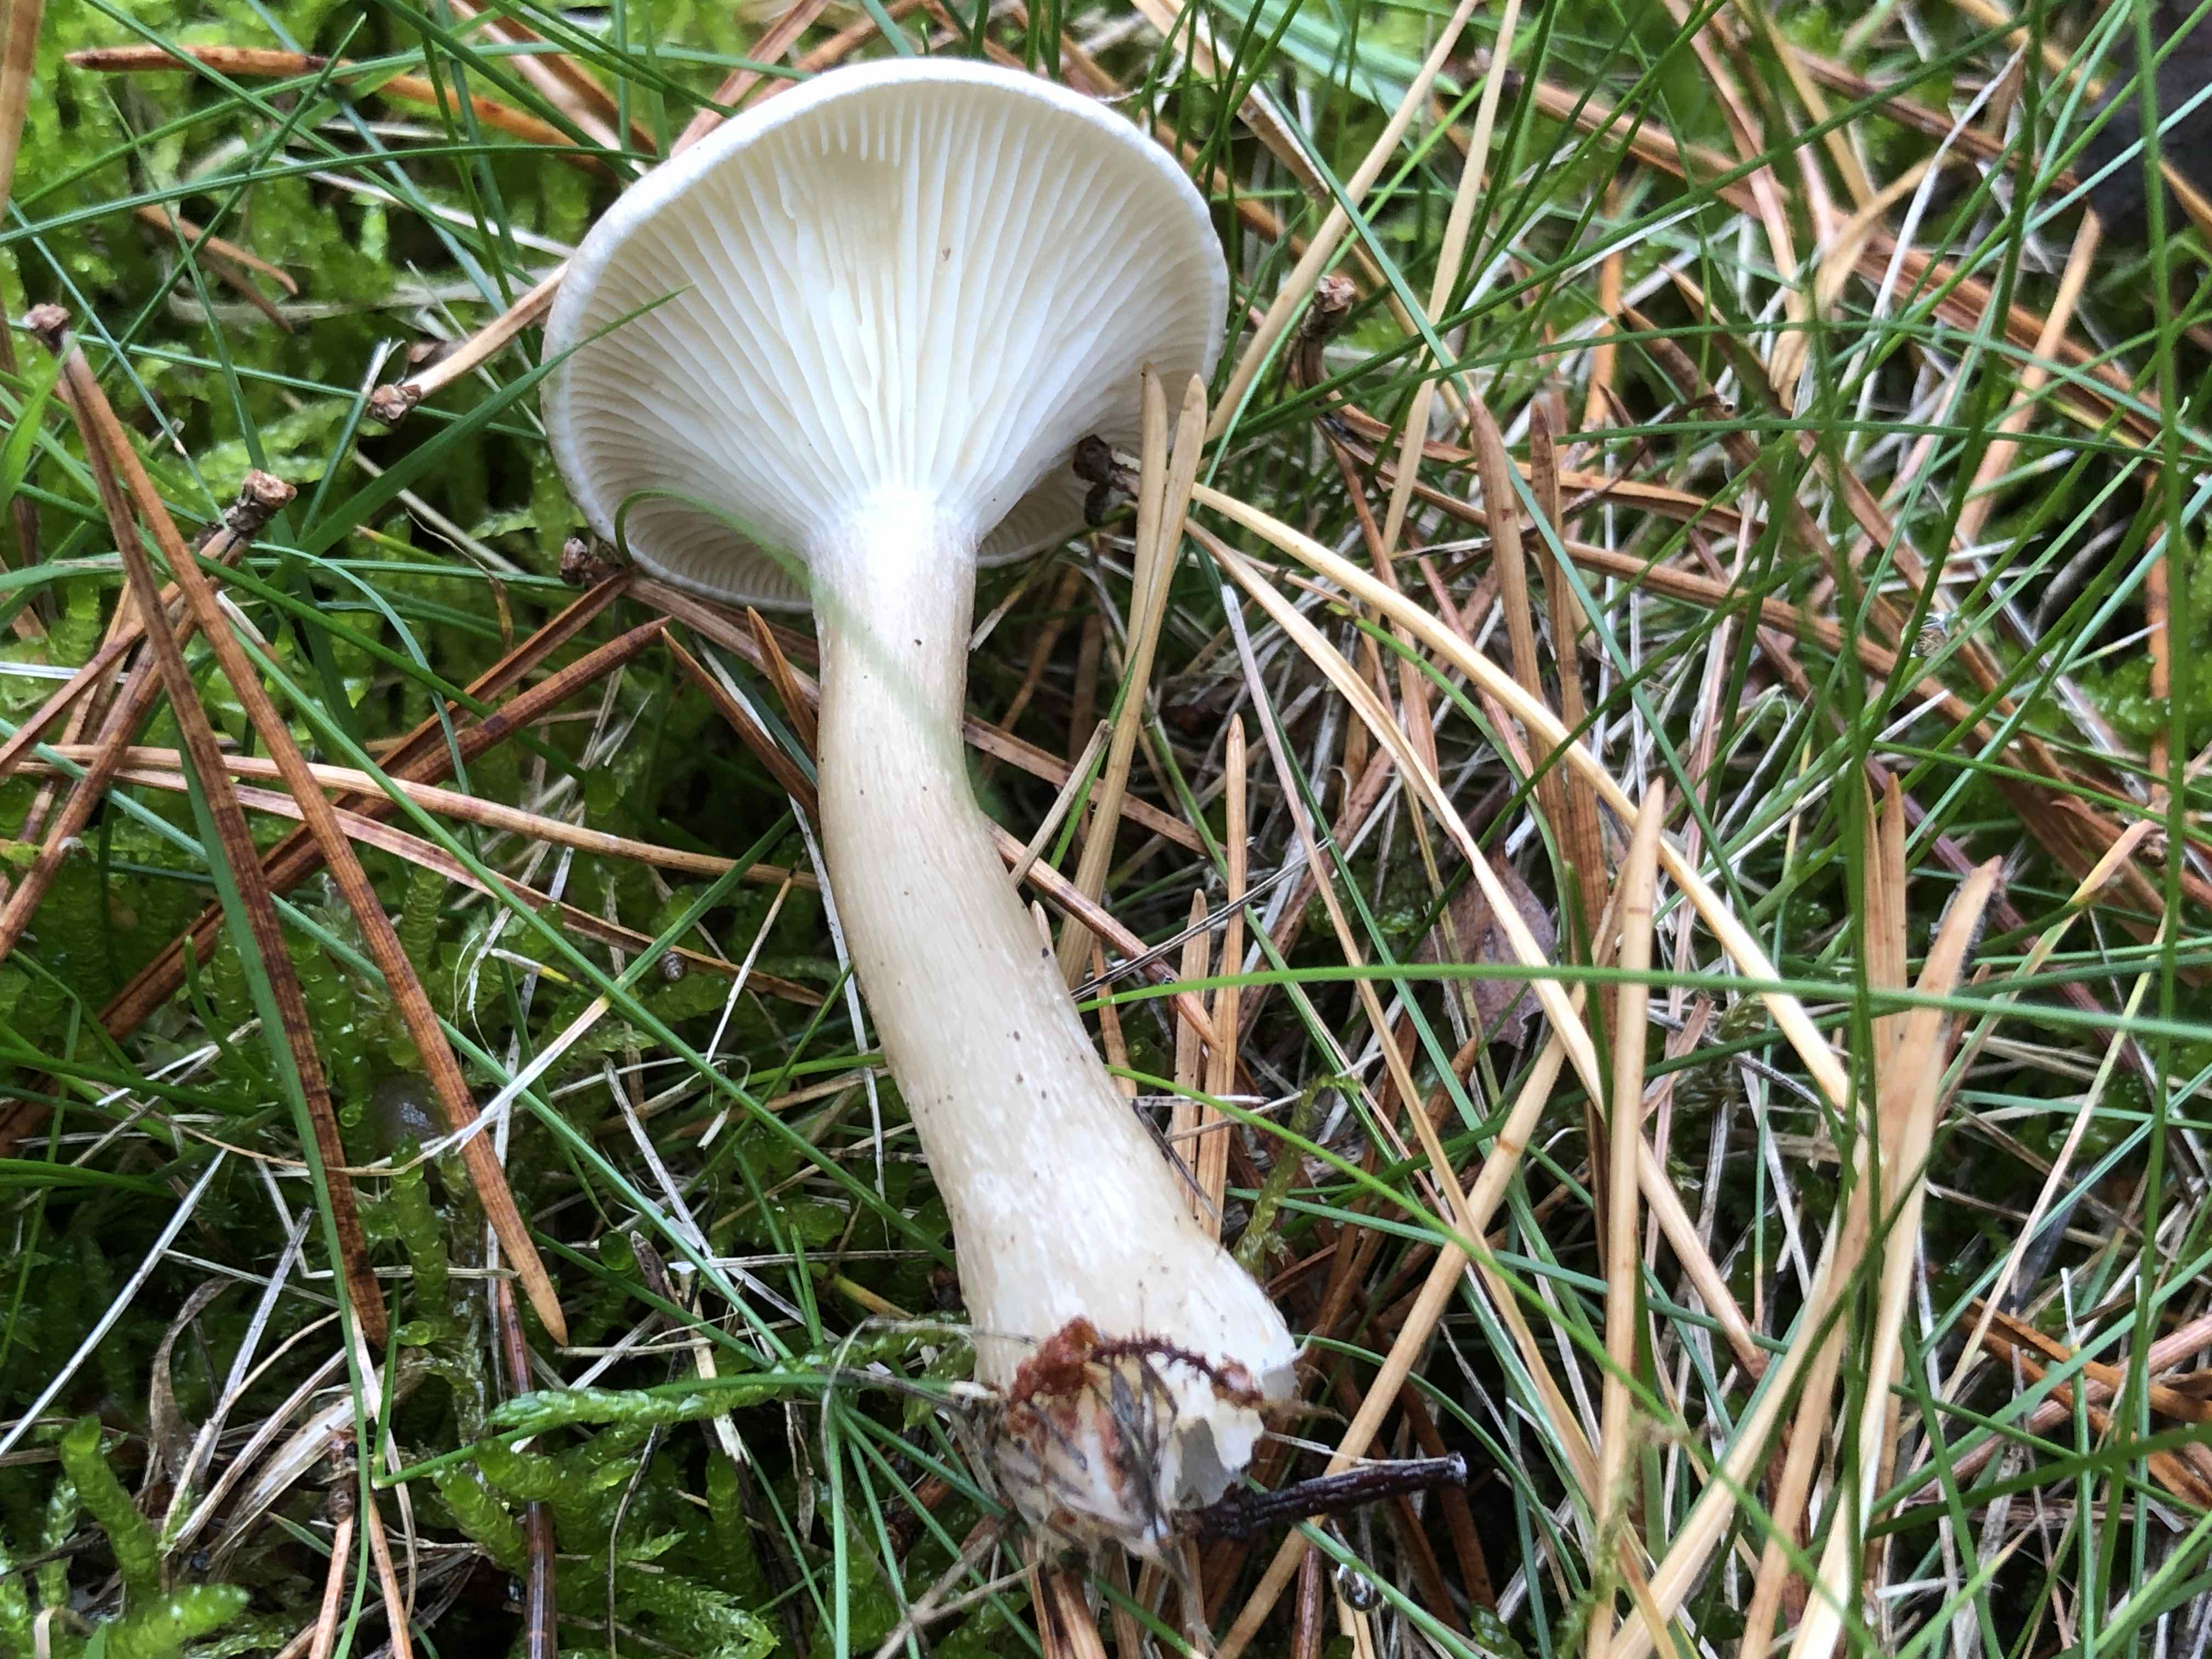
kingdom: Fungi
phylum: Basidiomycota
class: Agaricomycetes
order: Agaricales
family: Hygrophoraceae
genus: Ampulloclitocybe
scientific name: Ampulloclitocybe clavipes
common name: køllefod
